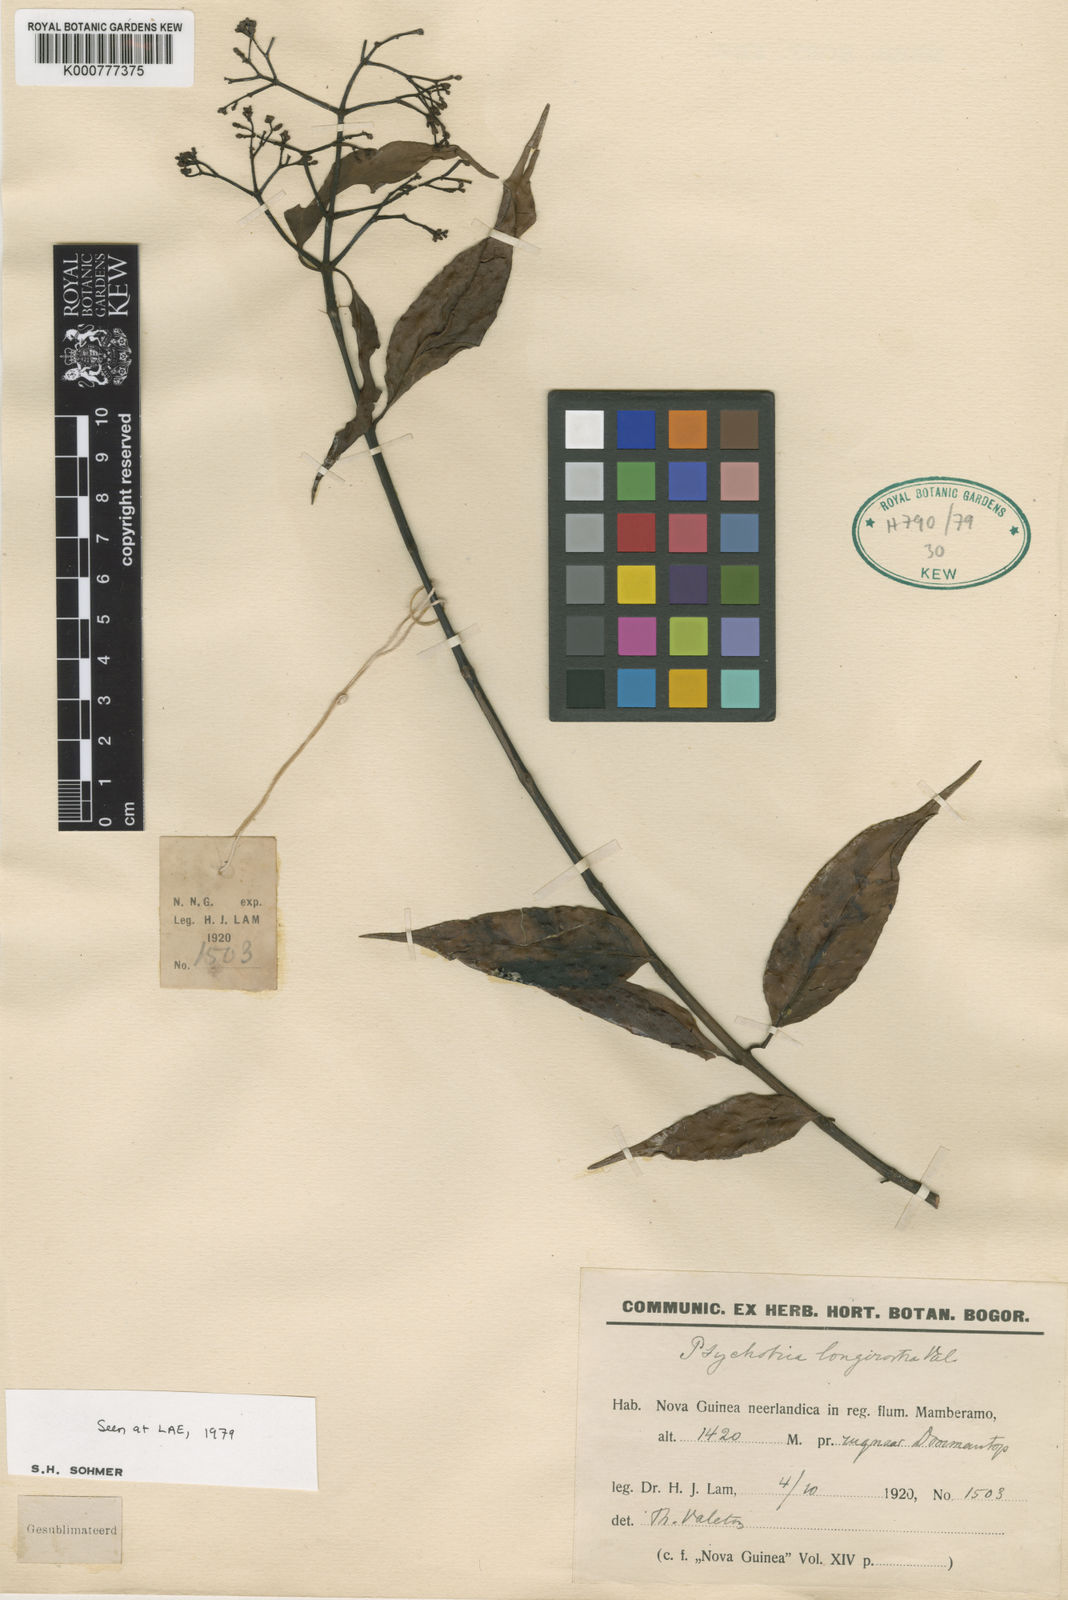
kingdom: Plantae
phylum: Tracheophyta
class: Magnoliopsida
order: Gentianales
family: Rubiaceae
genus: Psychotria
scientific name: Psychotria
